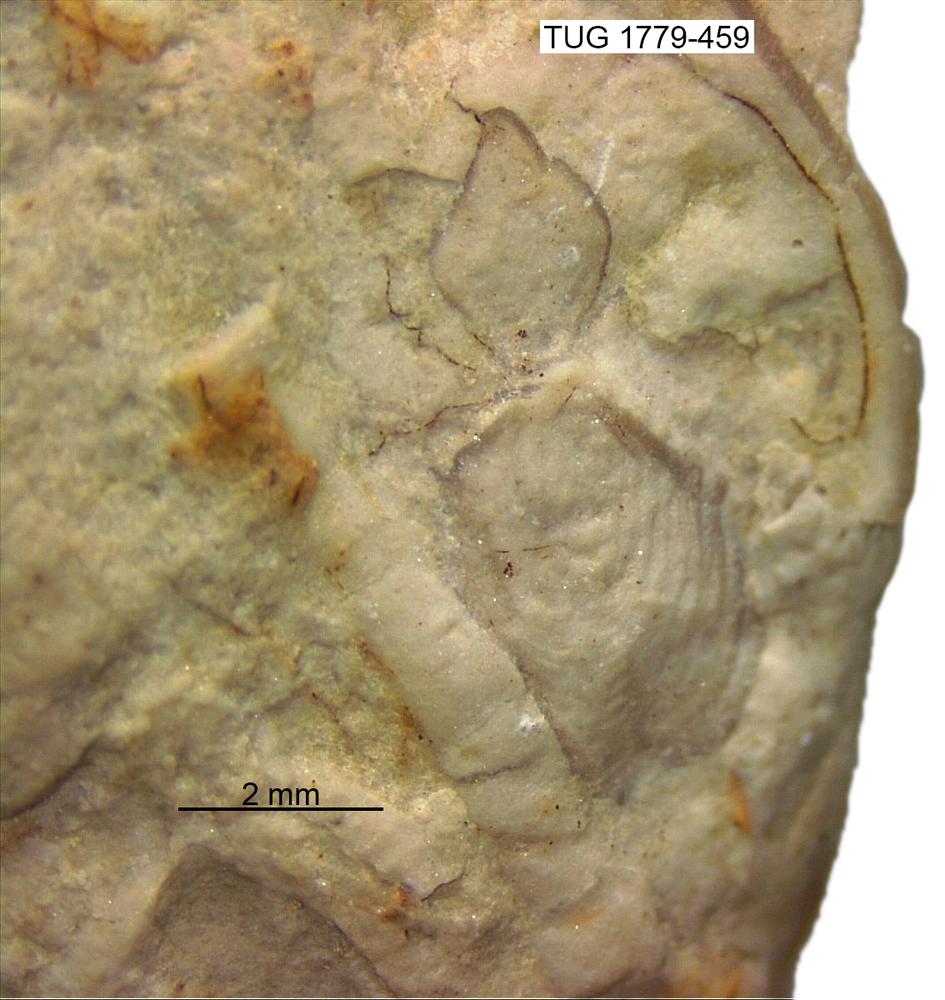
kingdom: Animalia
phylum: Arthropoda
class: Trilobita
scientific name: Trilobita
